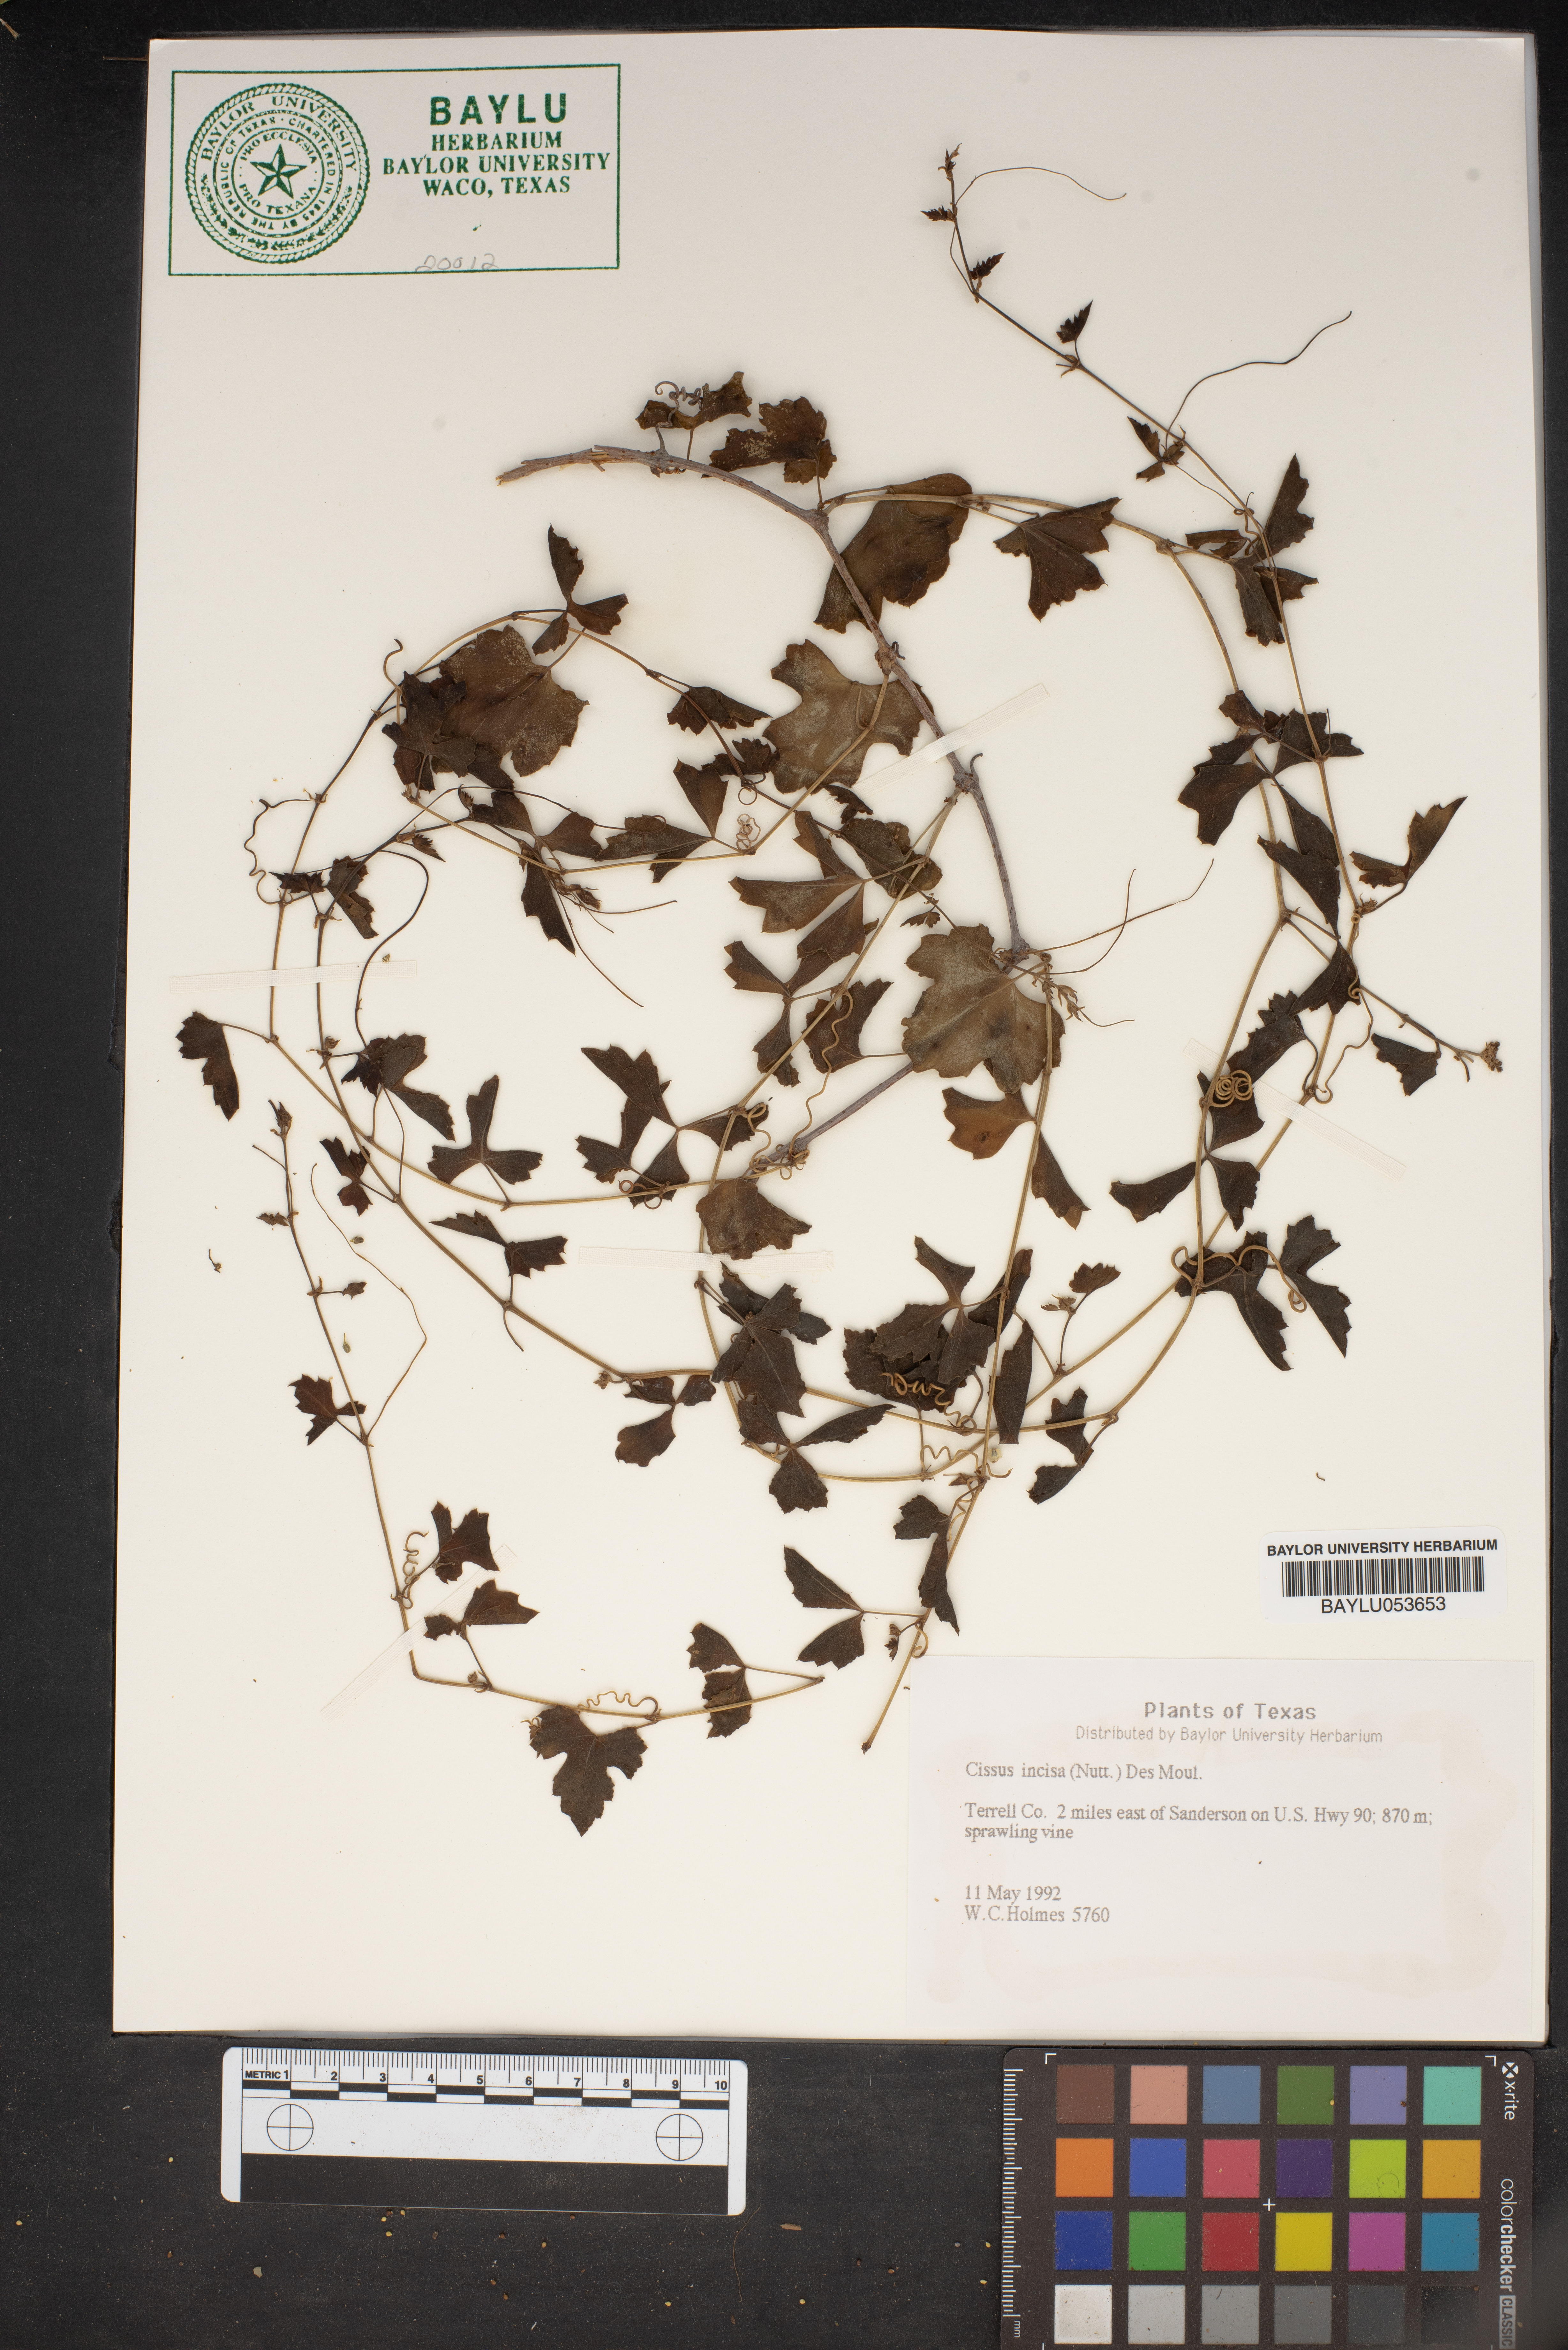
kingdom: Plantae
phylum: Tracheophyta
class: Magnoliopsida
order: Vitales
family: Vitaceae
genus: Cissus
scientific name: Cissus trifoliata
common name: Vine-sorrel
